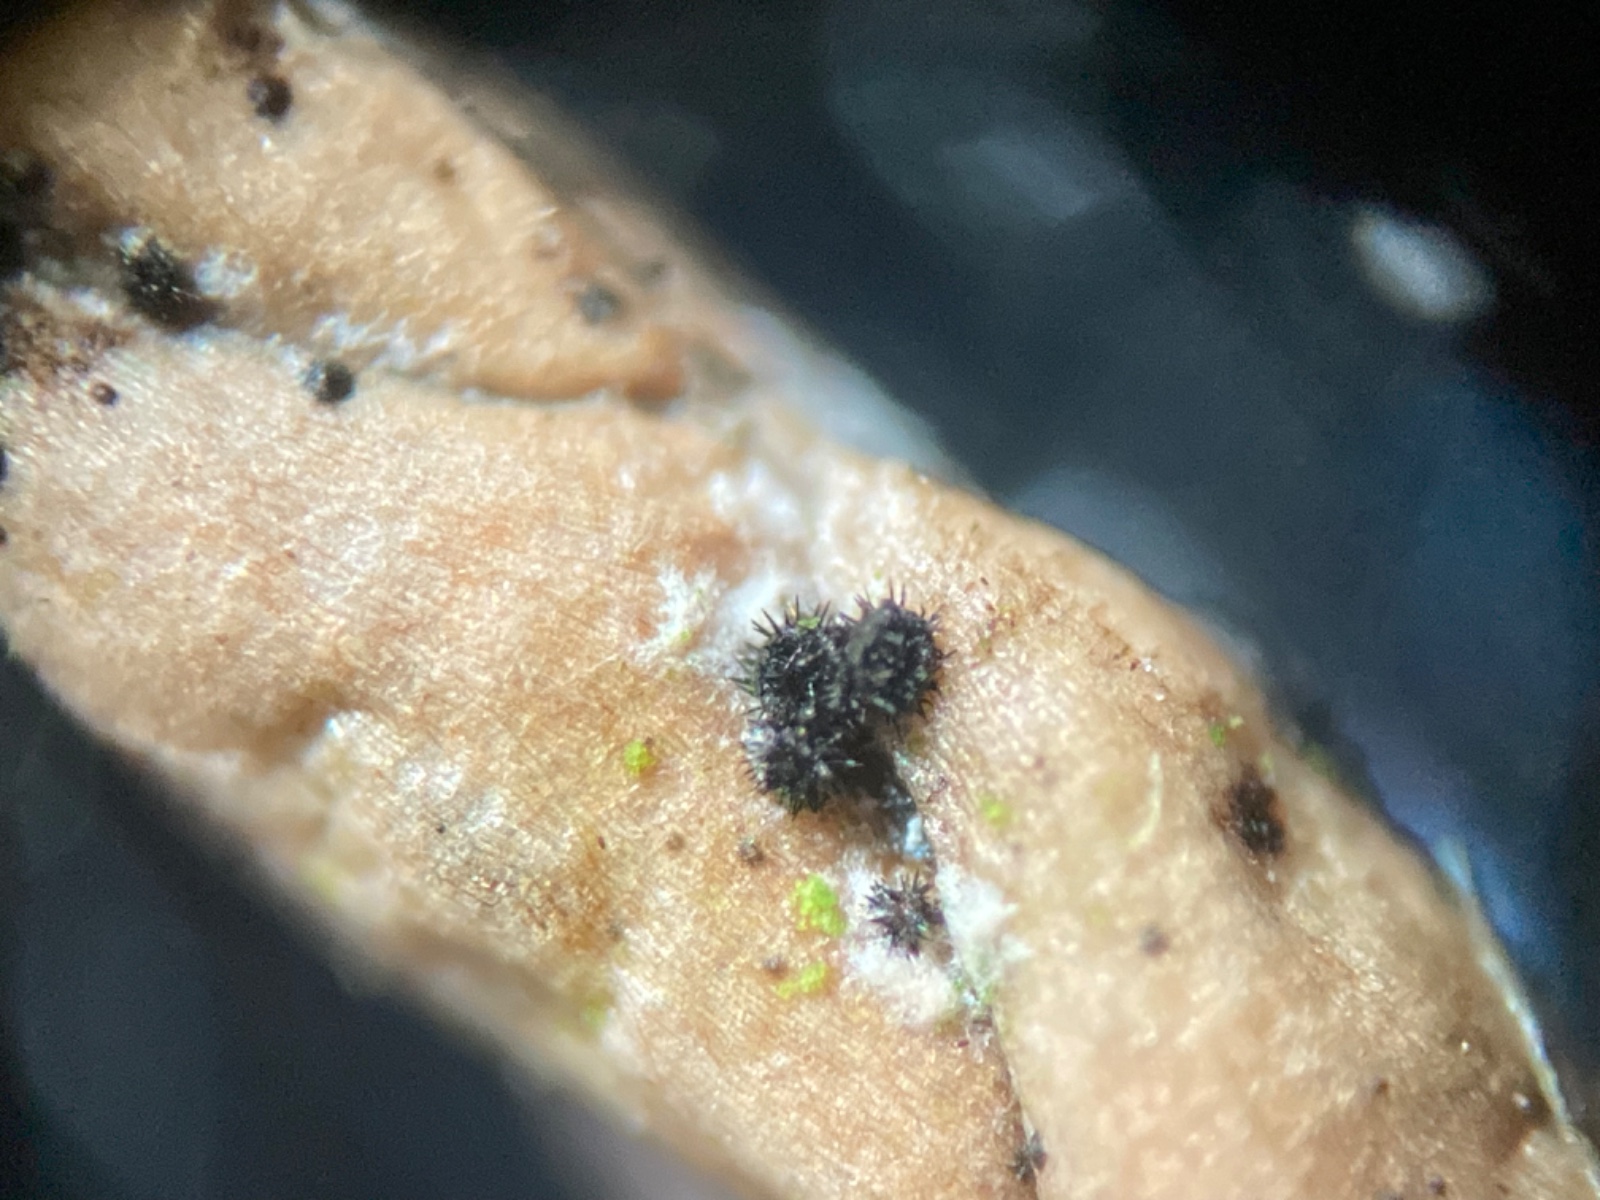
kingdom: Fungi
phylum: Ascomycota
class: Sordariomycetes
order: Hypocreales
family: Niessliaceae
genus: Niesslia
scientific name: Niesslia exilis
